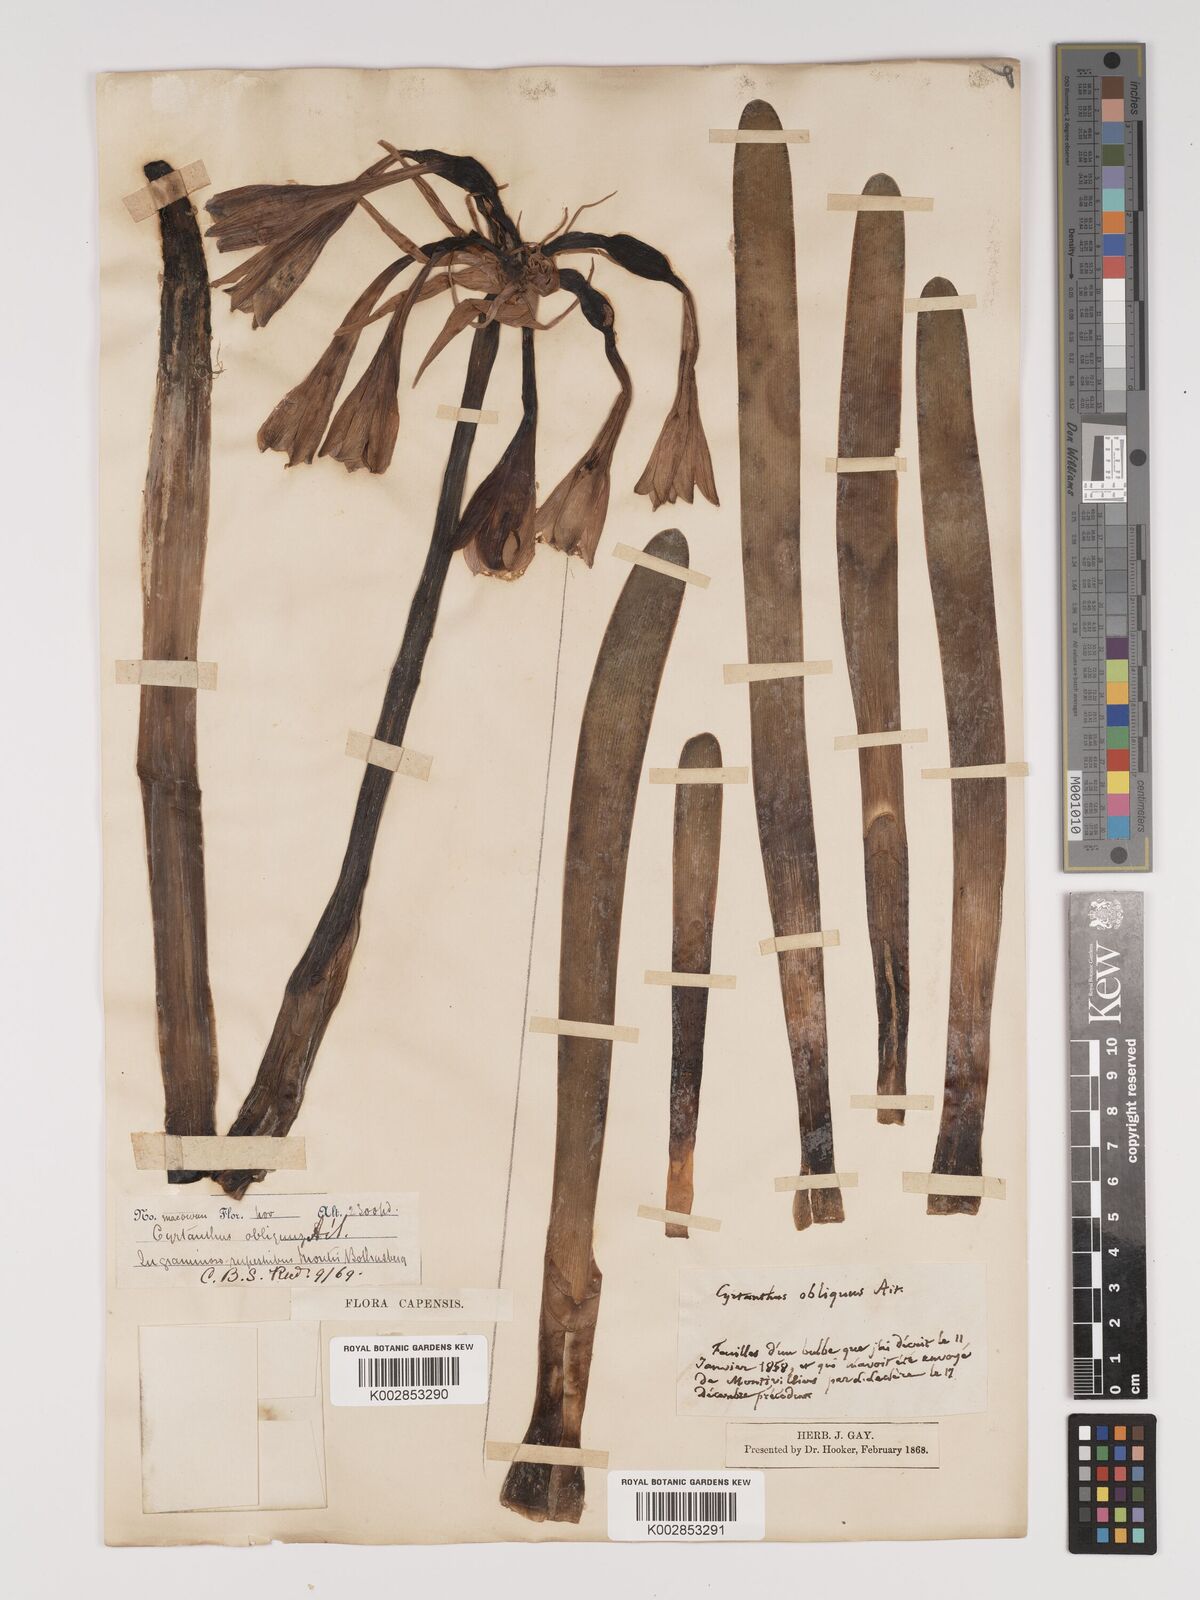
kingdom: Plantae
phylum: Tracheophyta
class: Liliopsida
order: Asparagales
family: Amaryllidaceae
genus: Cyrtanthus
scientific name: Cyrtanthus obliquus
